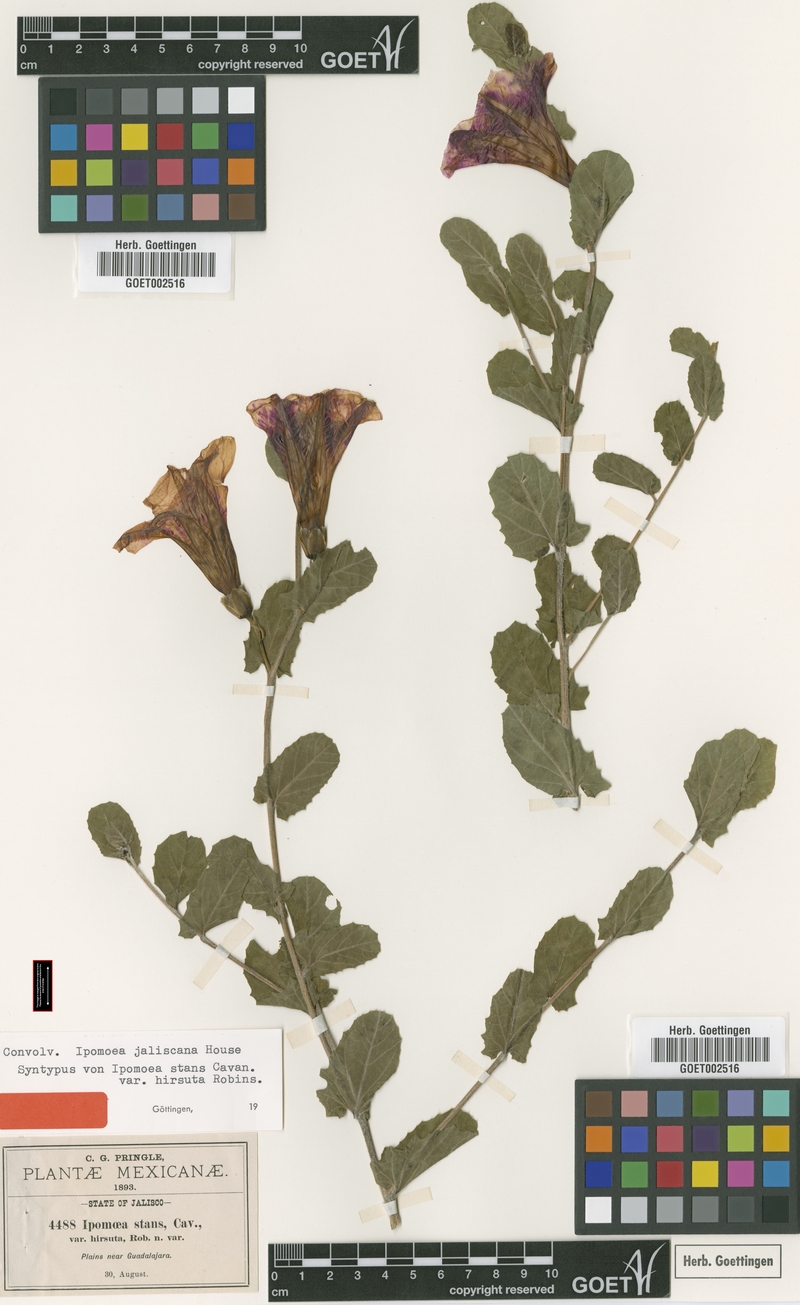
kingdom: Plantae
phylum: Tracheophyta
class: Magnoliopsida
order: Solanales
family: Convolvulaceae
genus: Ipomoea
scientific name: Ipomoea stans
